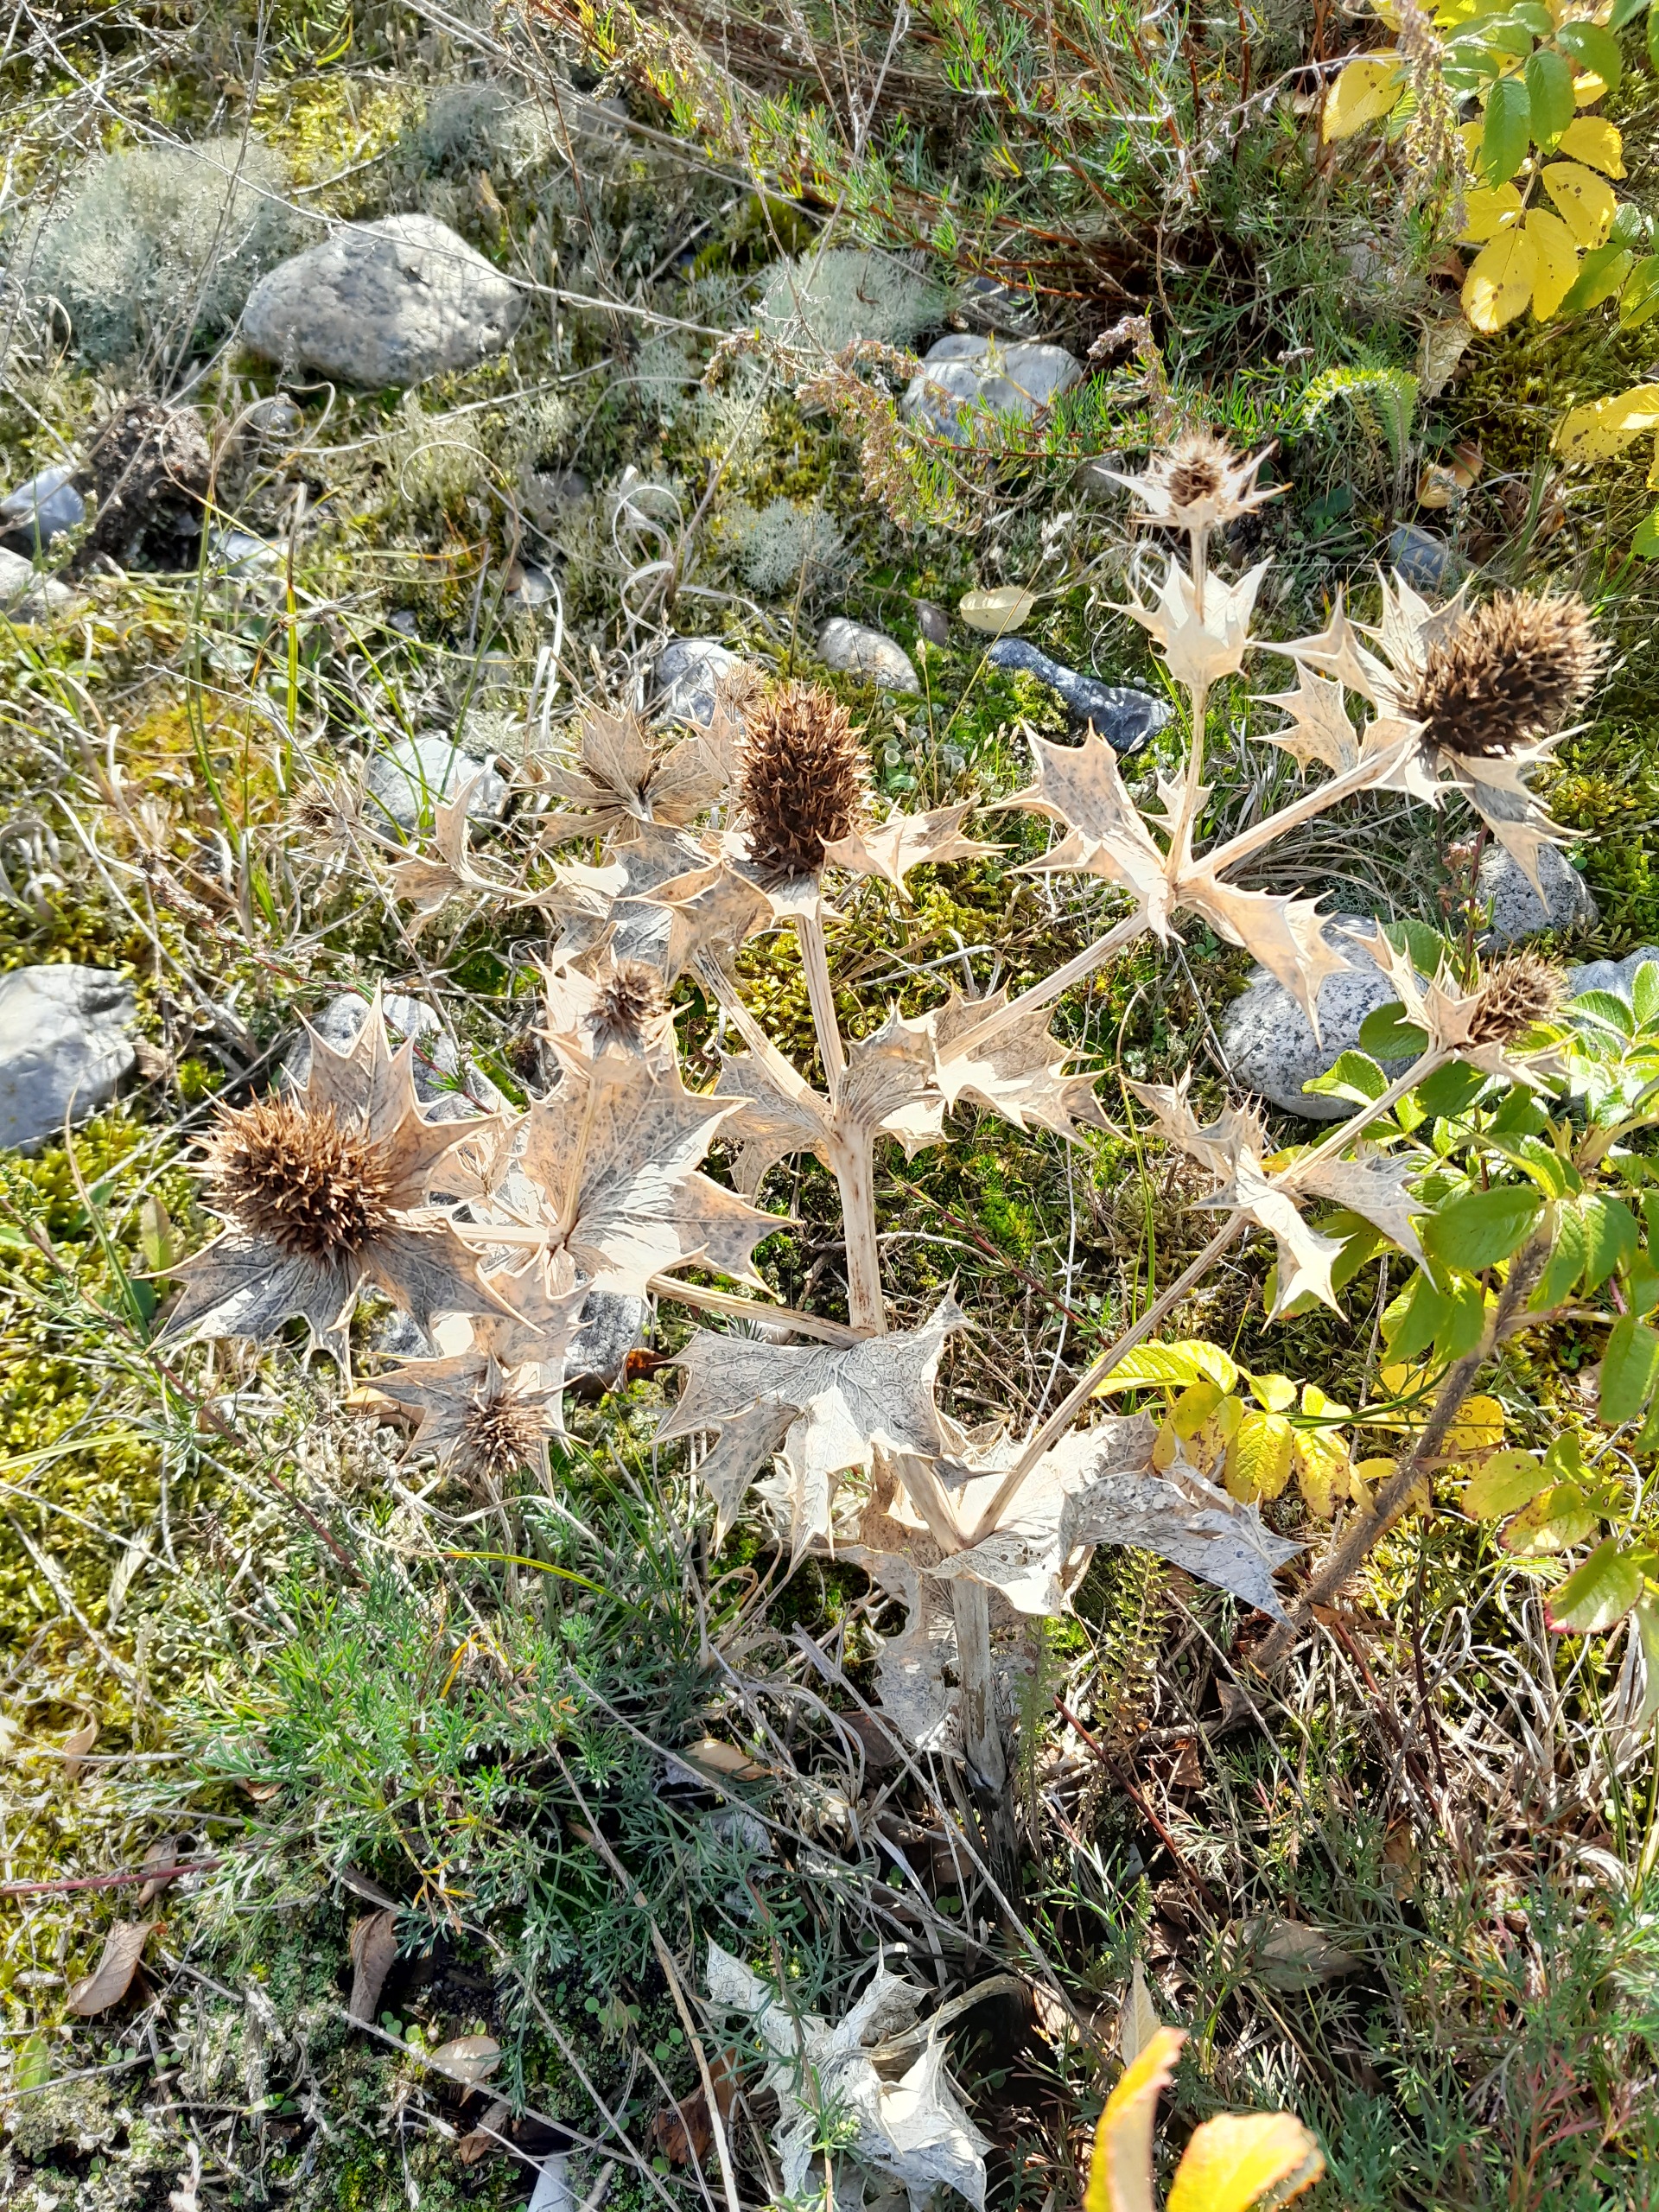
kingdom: Plantae
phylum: Tracheophyta
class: Magnoliopsida
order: Apiales
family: Apiaceae
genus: Eryngium
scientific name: Eryngium maritimum
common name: Strand-mandstro
